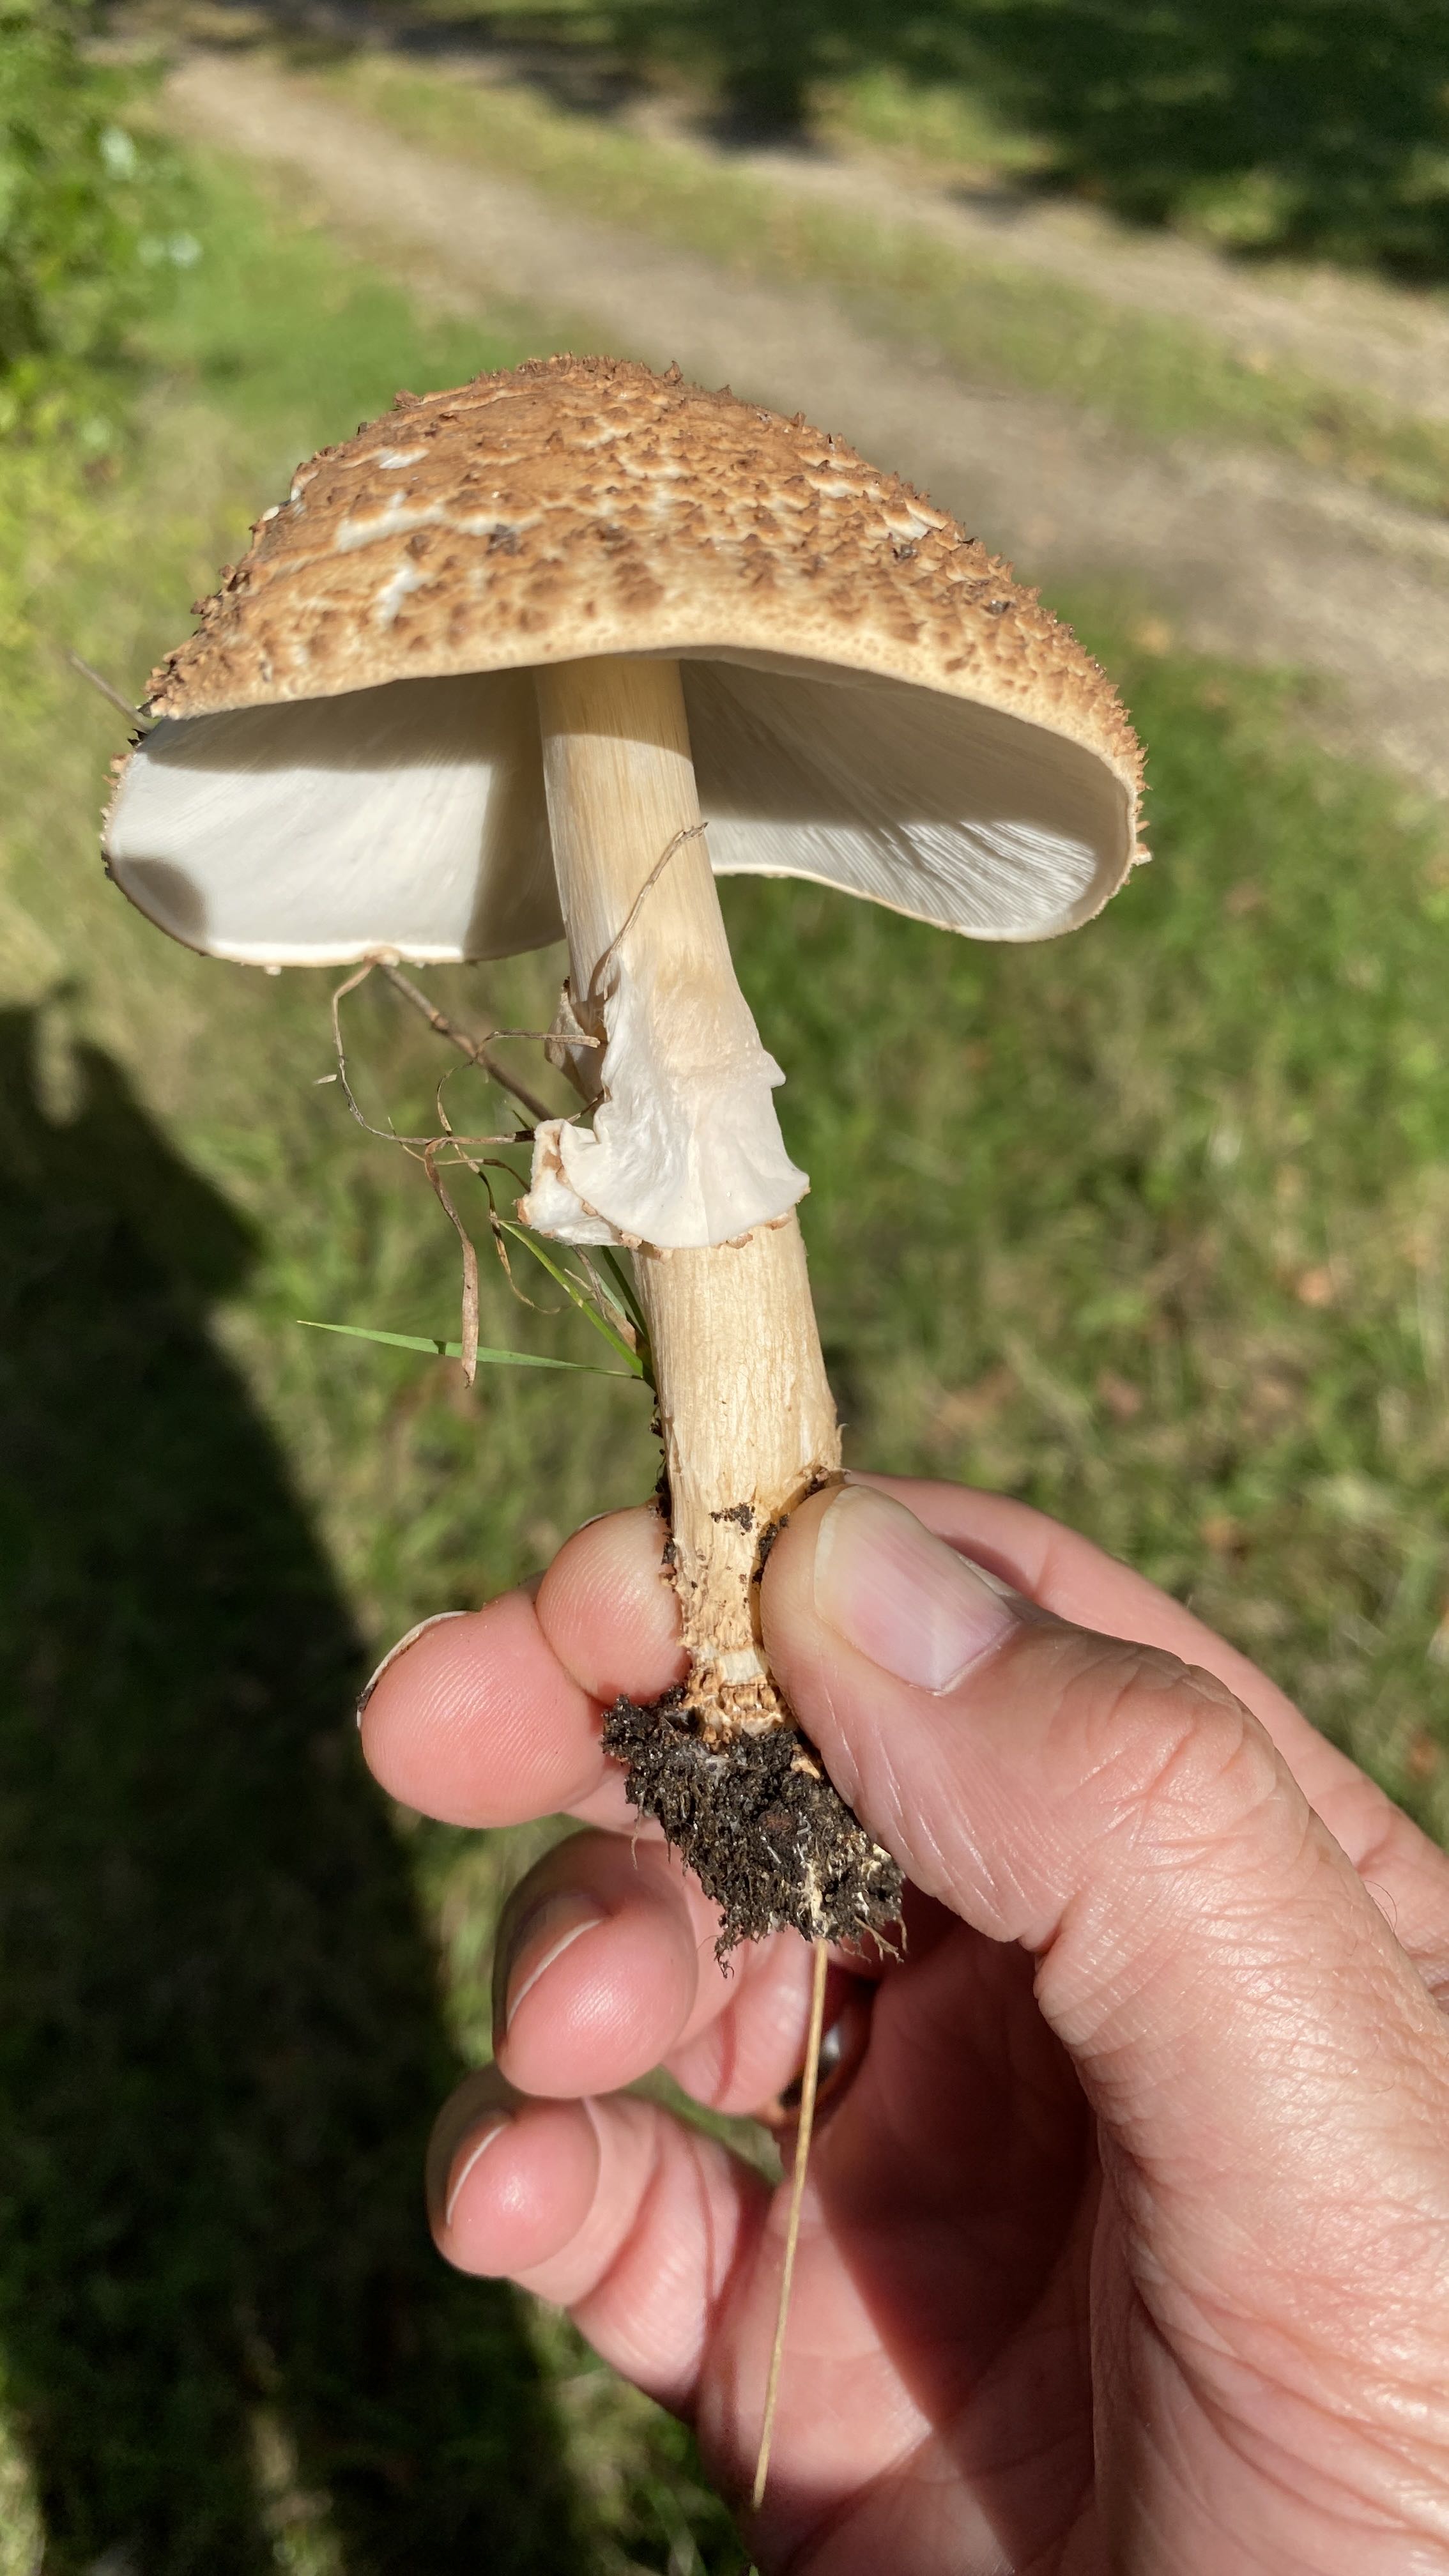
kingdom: Fungi
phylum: Basidiomycota
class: Agaricomycetes
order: Agaricales
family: Agaricaceae
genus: Echinoderma
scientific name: Echinoderma asperum
